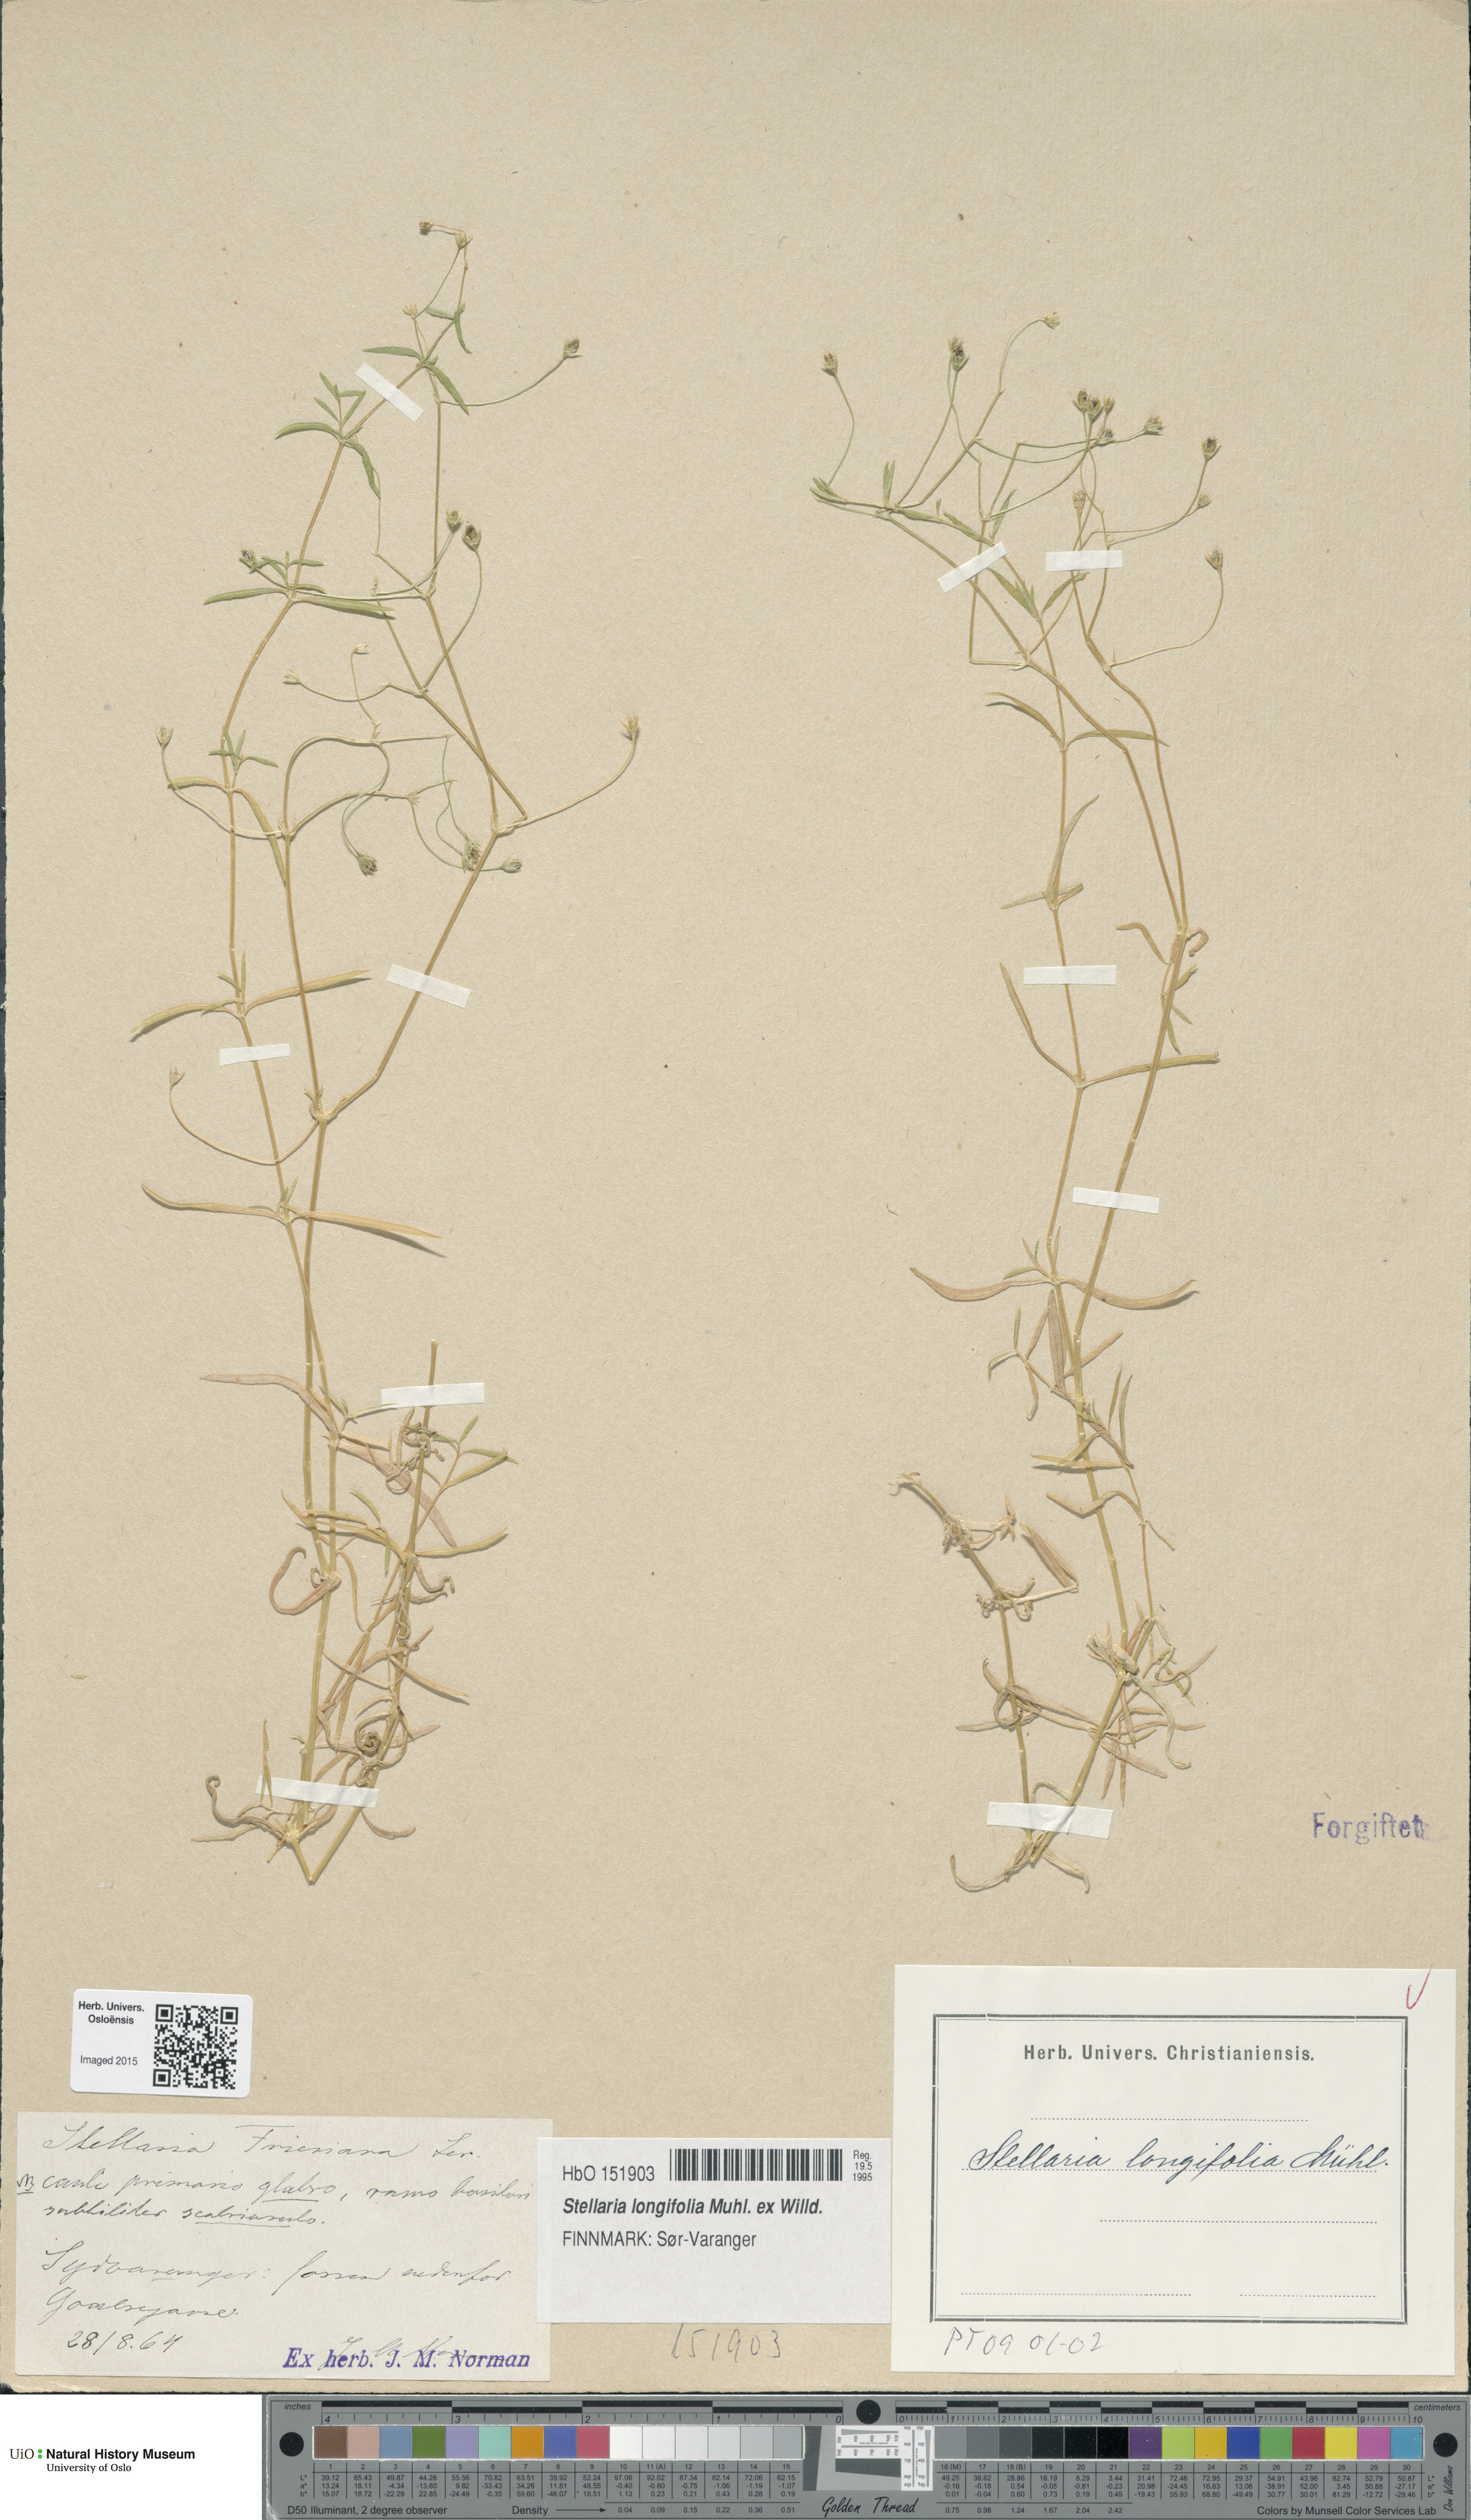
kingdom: Plantae
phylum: Tracheophyta
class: Magnoliopsida
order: Caryophyllales
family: Caryophyllaceae
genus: Stellaria
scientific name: Stellaria longifolia
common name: Long-leaved chickweed
